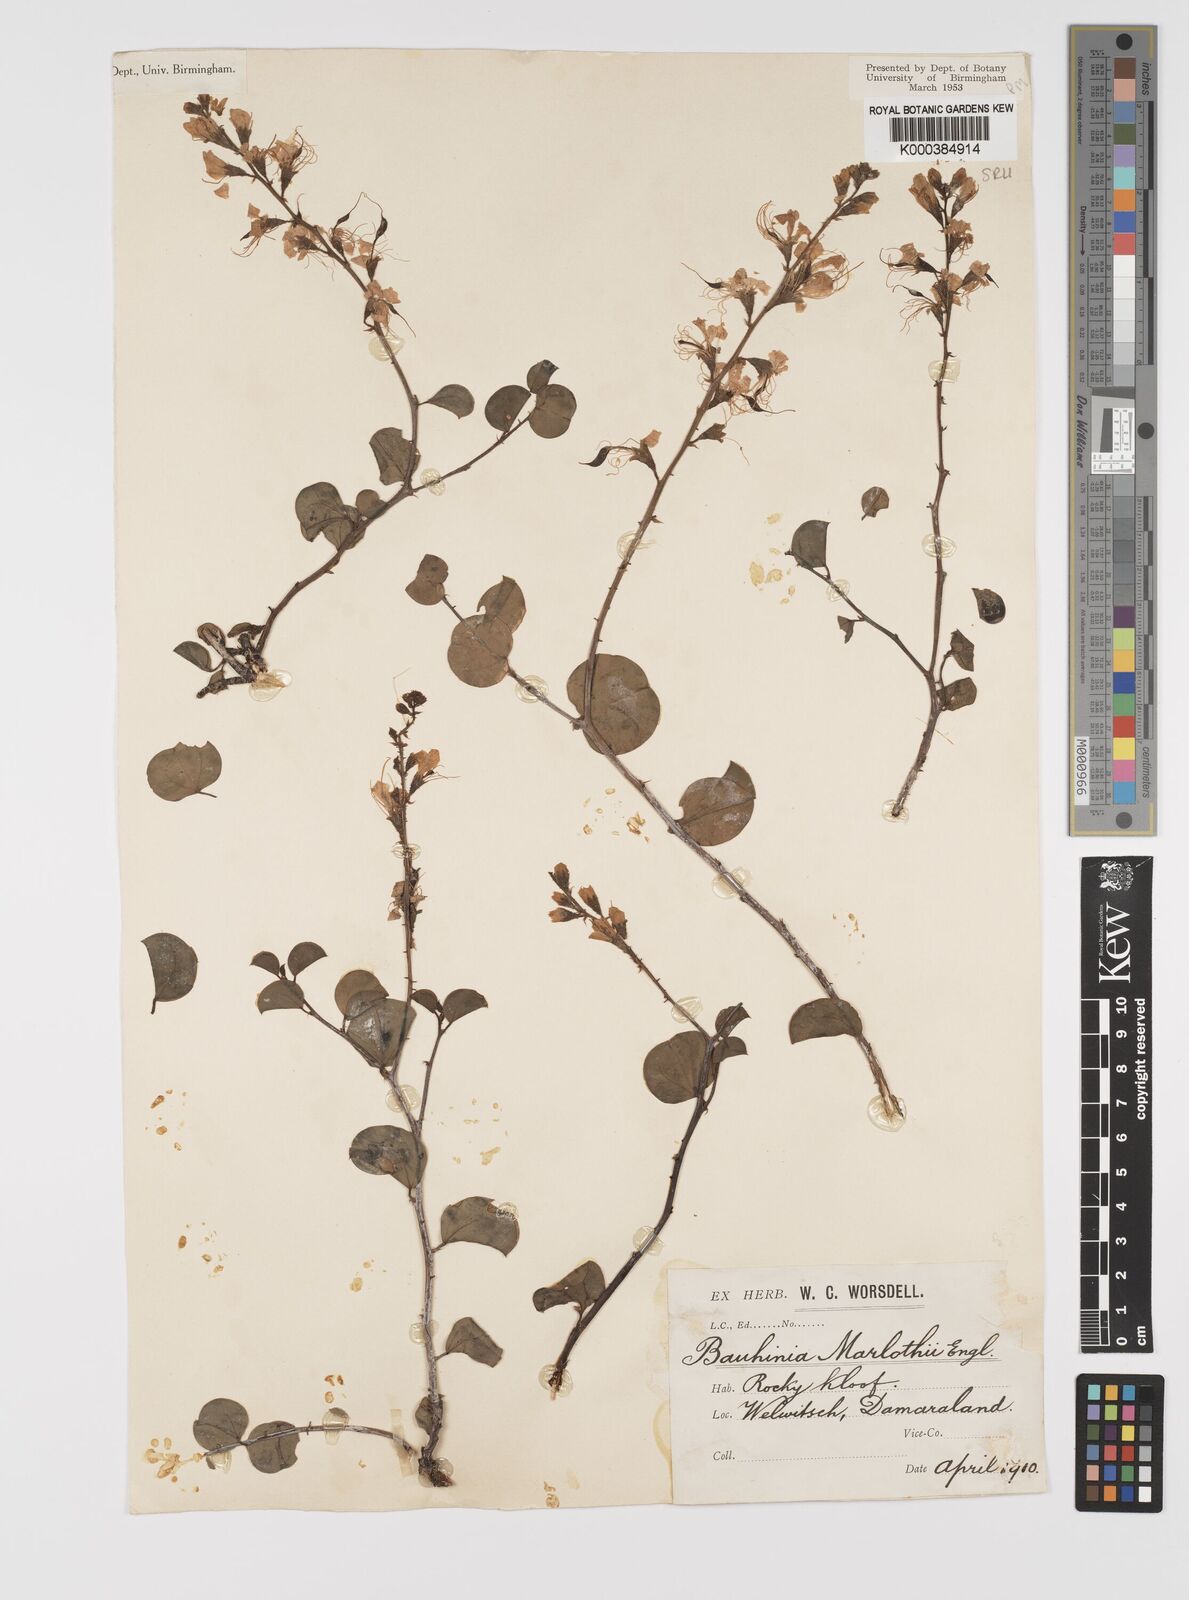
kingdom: Plantae
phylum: Tracheophyta
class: Magnoliopsida
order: Fabales
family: Fabaceae
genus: Bauhinia
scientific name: Bauhinia
